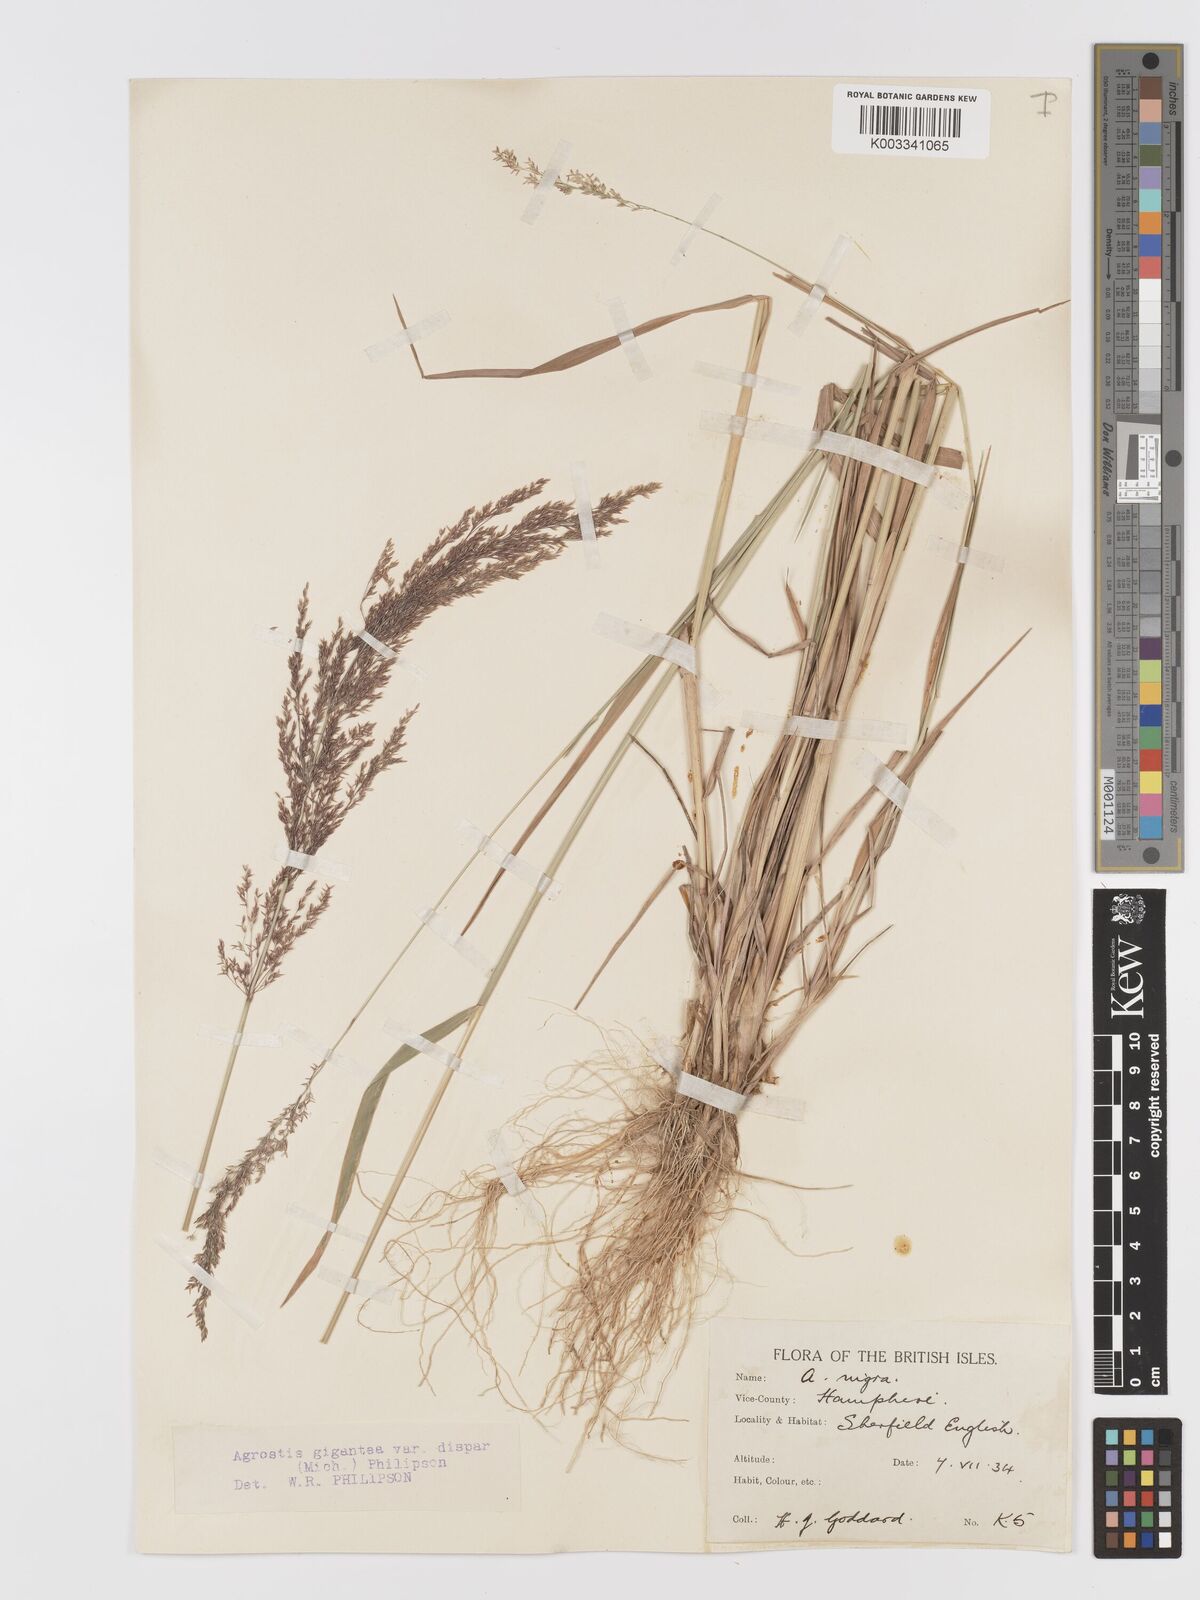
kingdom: Plantae
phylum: Tracheophyta
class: Liliopsida
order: Poales
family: Poaceae
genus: Agrostis
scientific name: Agrostis gigantea
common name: Black bent
